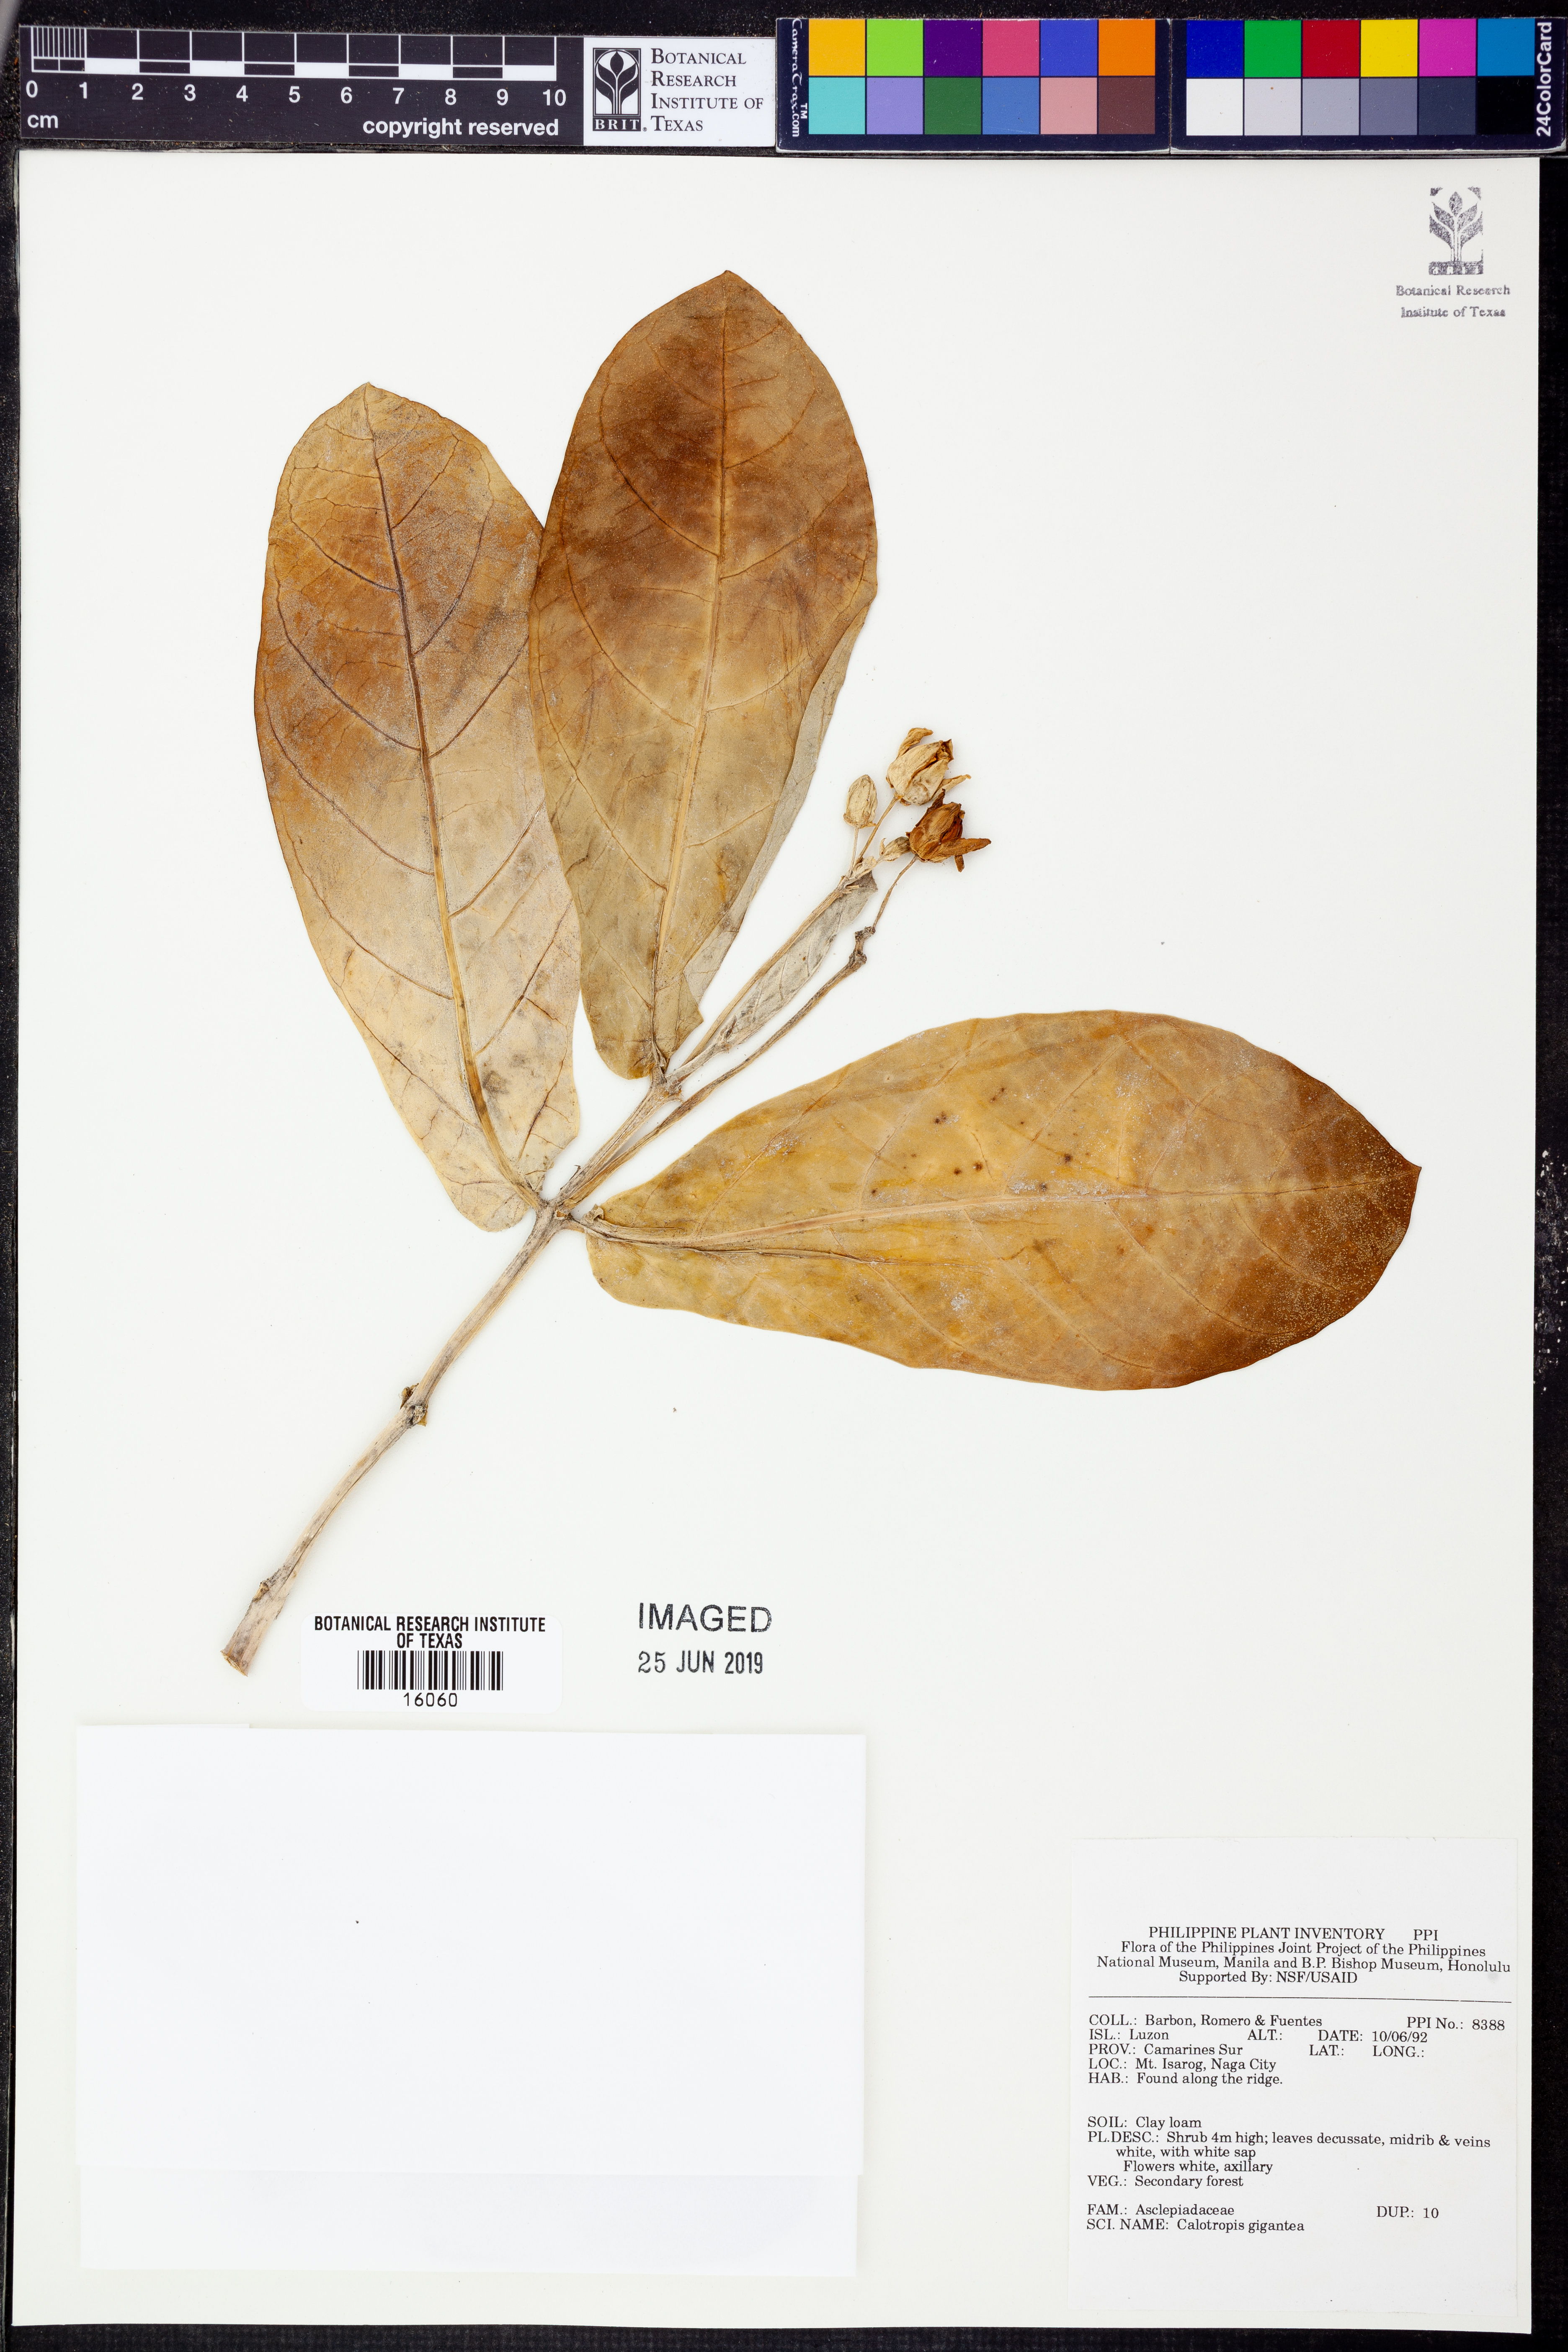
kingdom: Plantae
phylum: Tracheophyta
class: Magnoliopsida
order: Gentianales
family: Apocynaceae
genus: Calotropis
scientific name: Calotropis gigantea
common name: Crown flower
